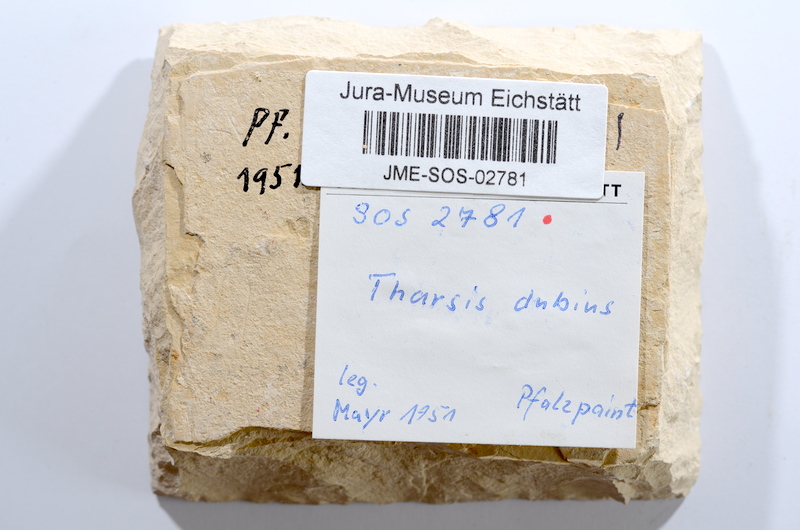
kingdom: Animalia
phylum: Chordata
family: Ascalaboidae
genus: Tharsis
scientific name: Tharsis dubius
